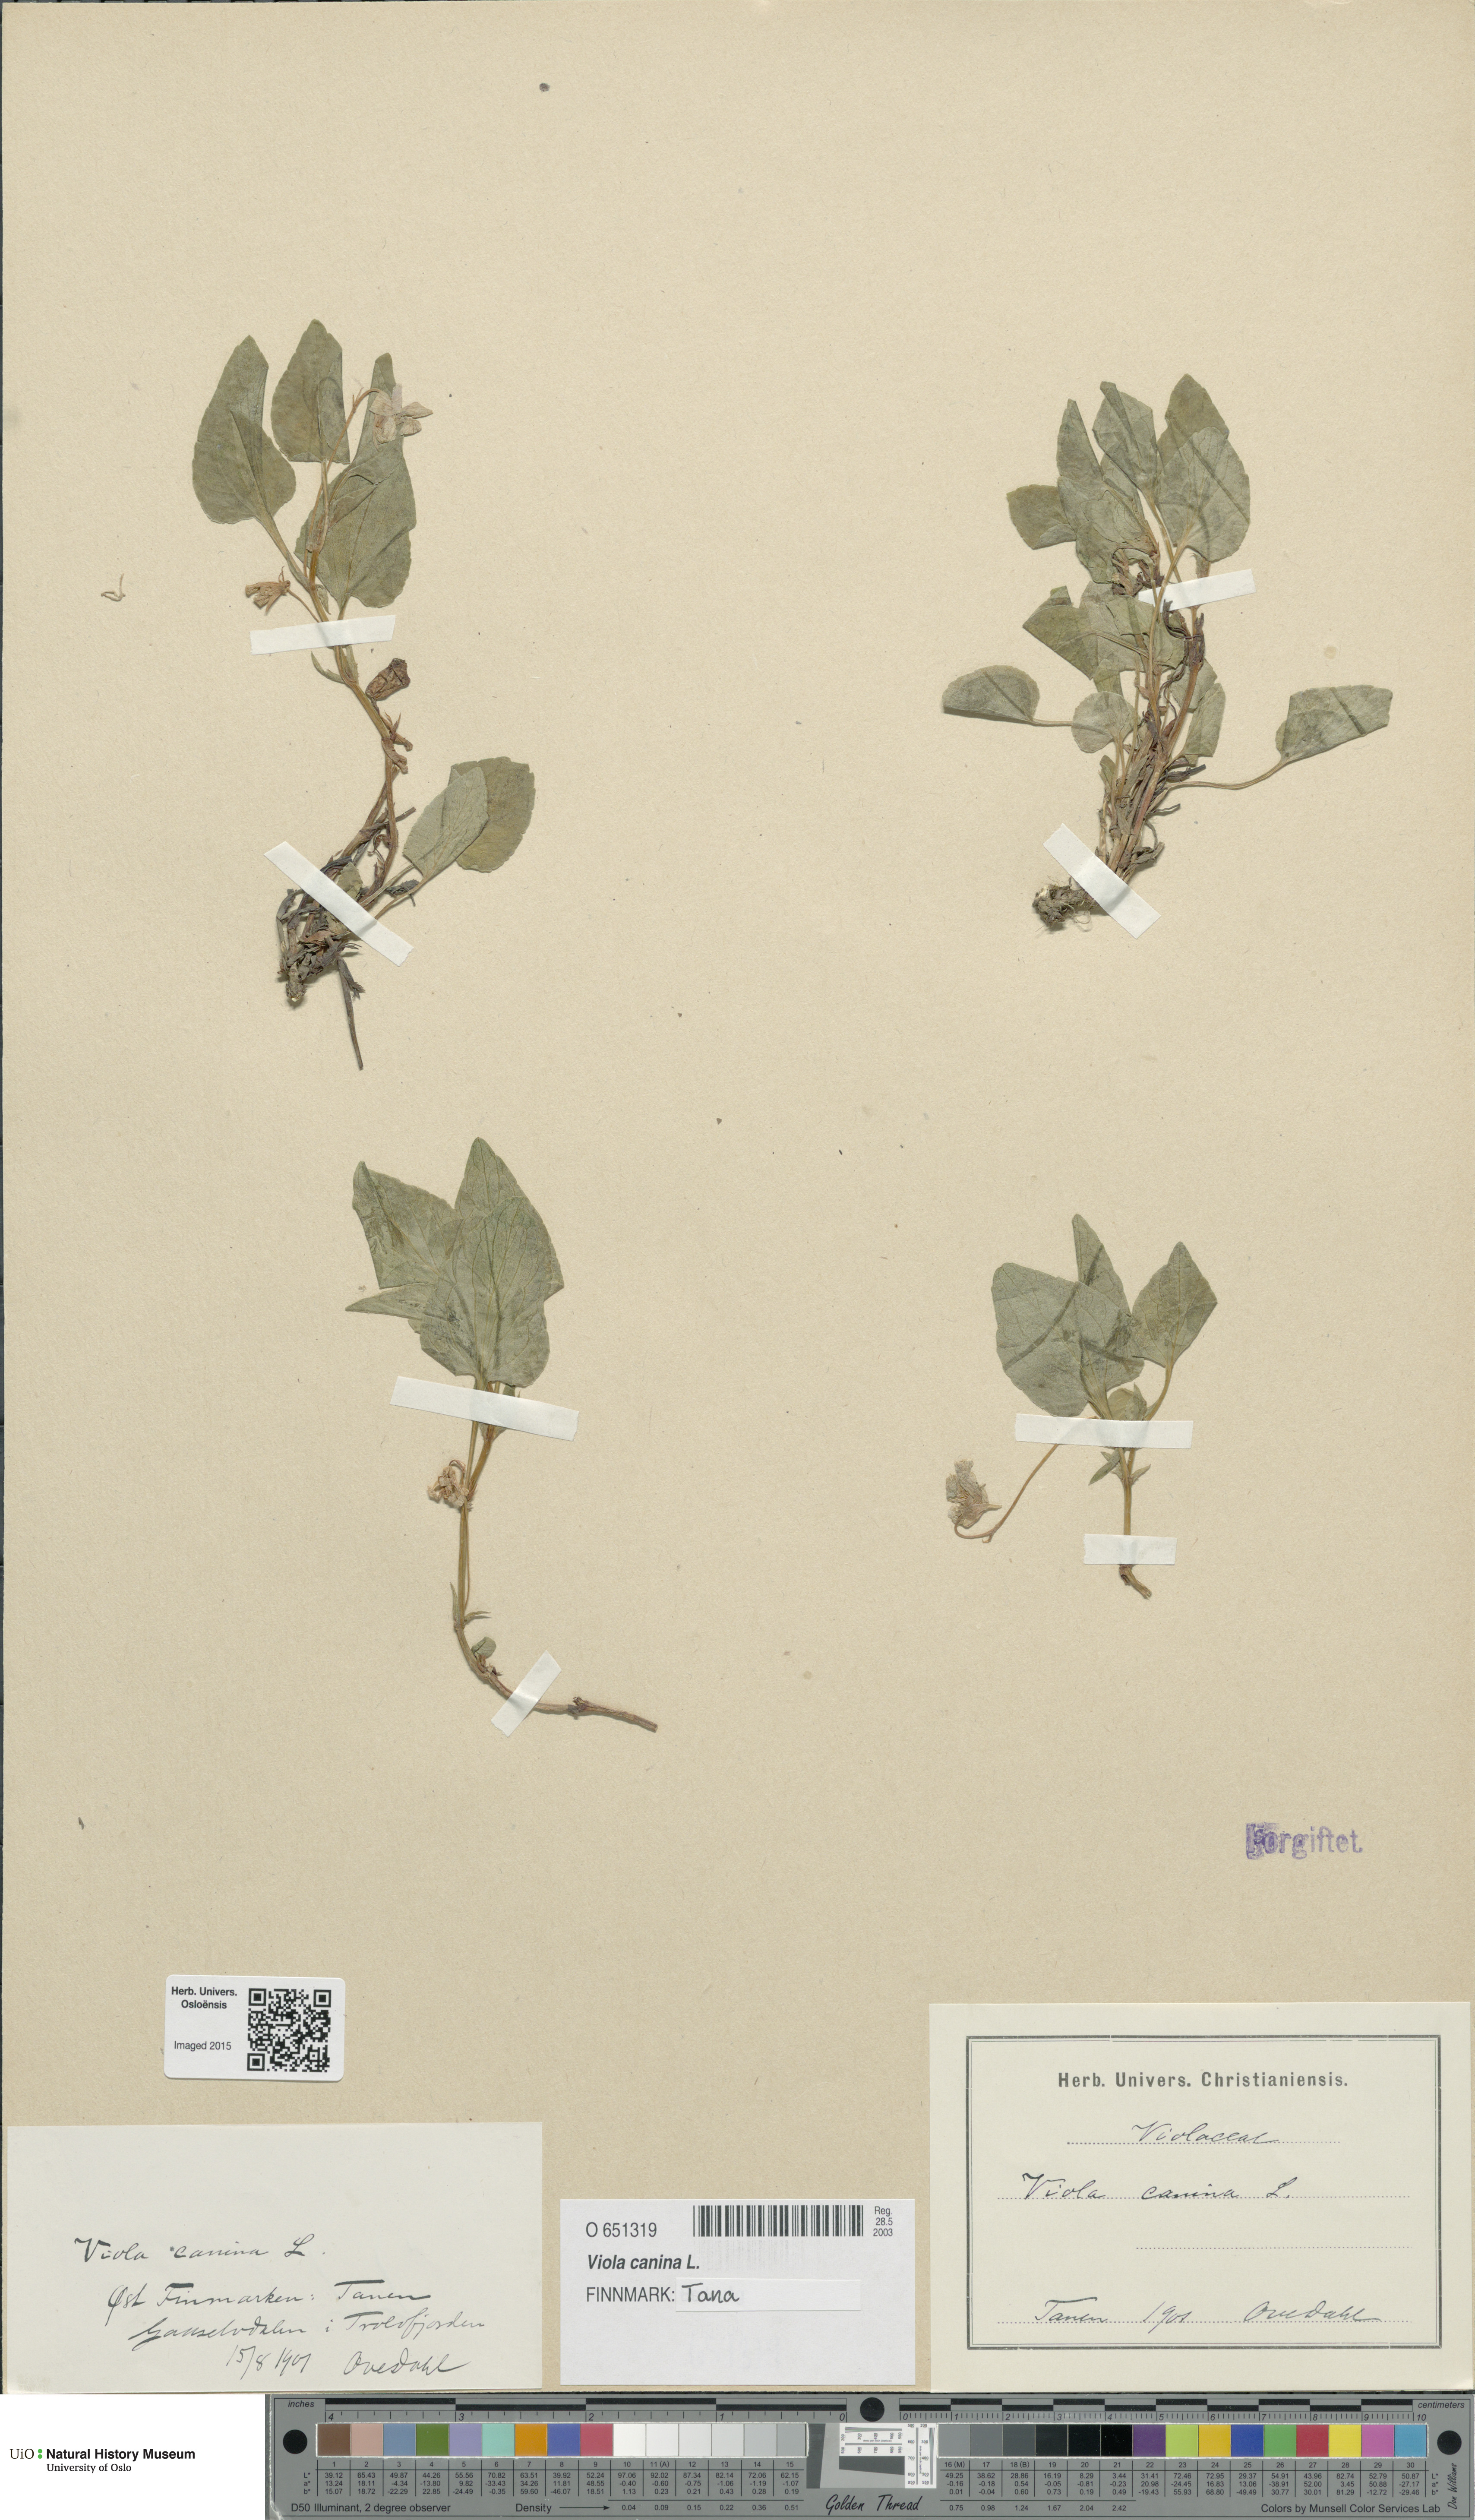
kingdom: Plantae
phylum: Tracheophyta
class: Magnoliopsida
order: Malpighiales
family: Violaceae
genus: Viola
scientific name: Viola canina
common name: Heath dog-violet
